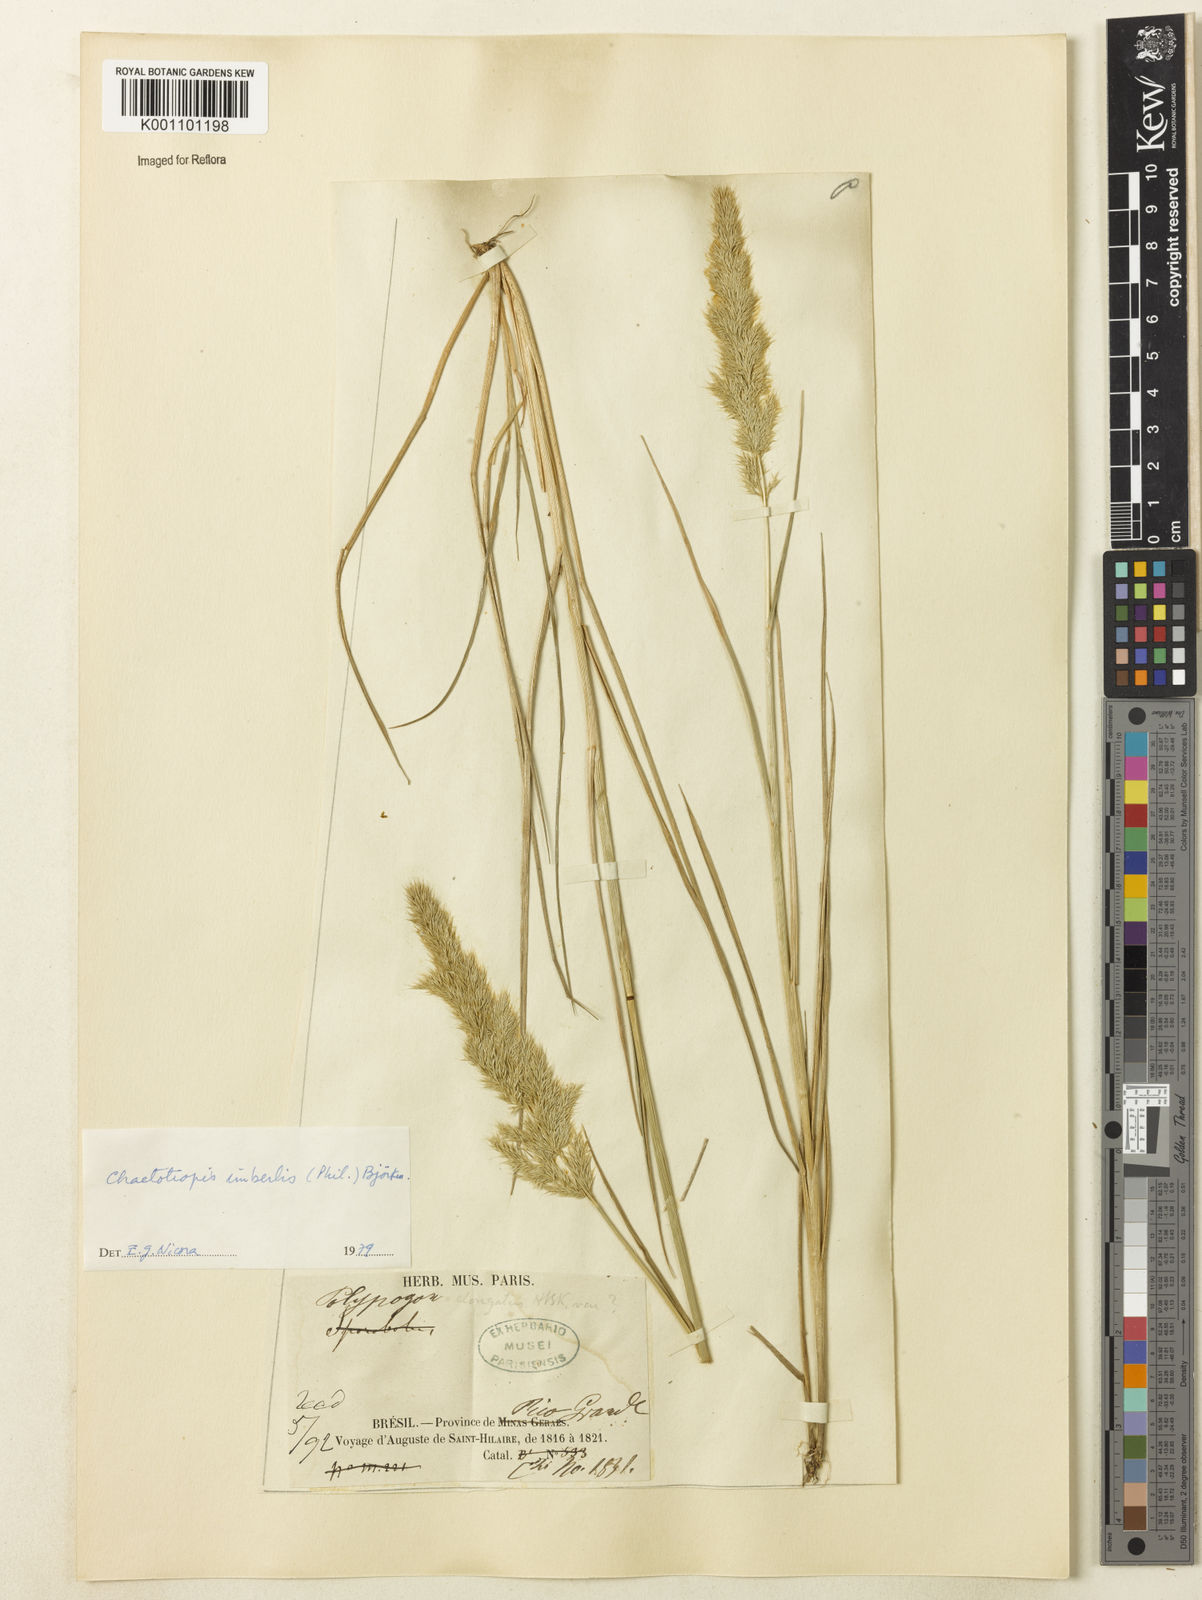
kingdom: Plantae
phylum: Tracheophyta
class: Liliopsida
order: Poales
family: Poaceae
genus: Polypogon
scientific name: Polypogon imberbis
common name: Beardless rabbitsfoot grass
